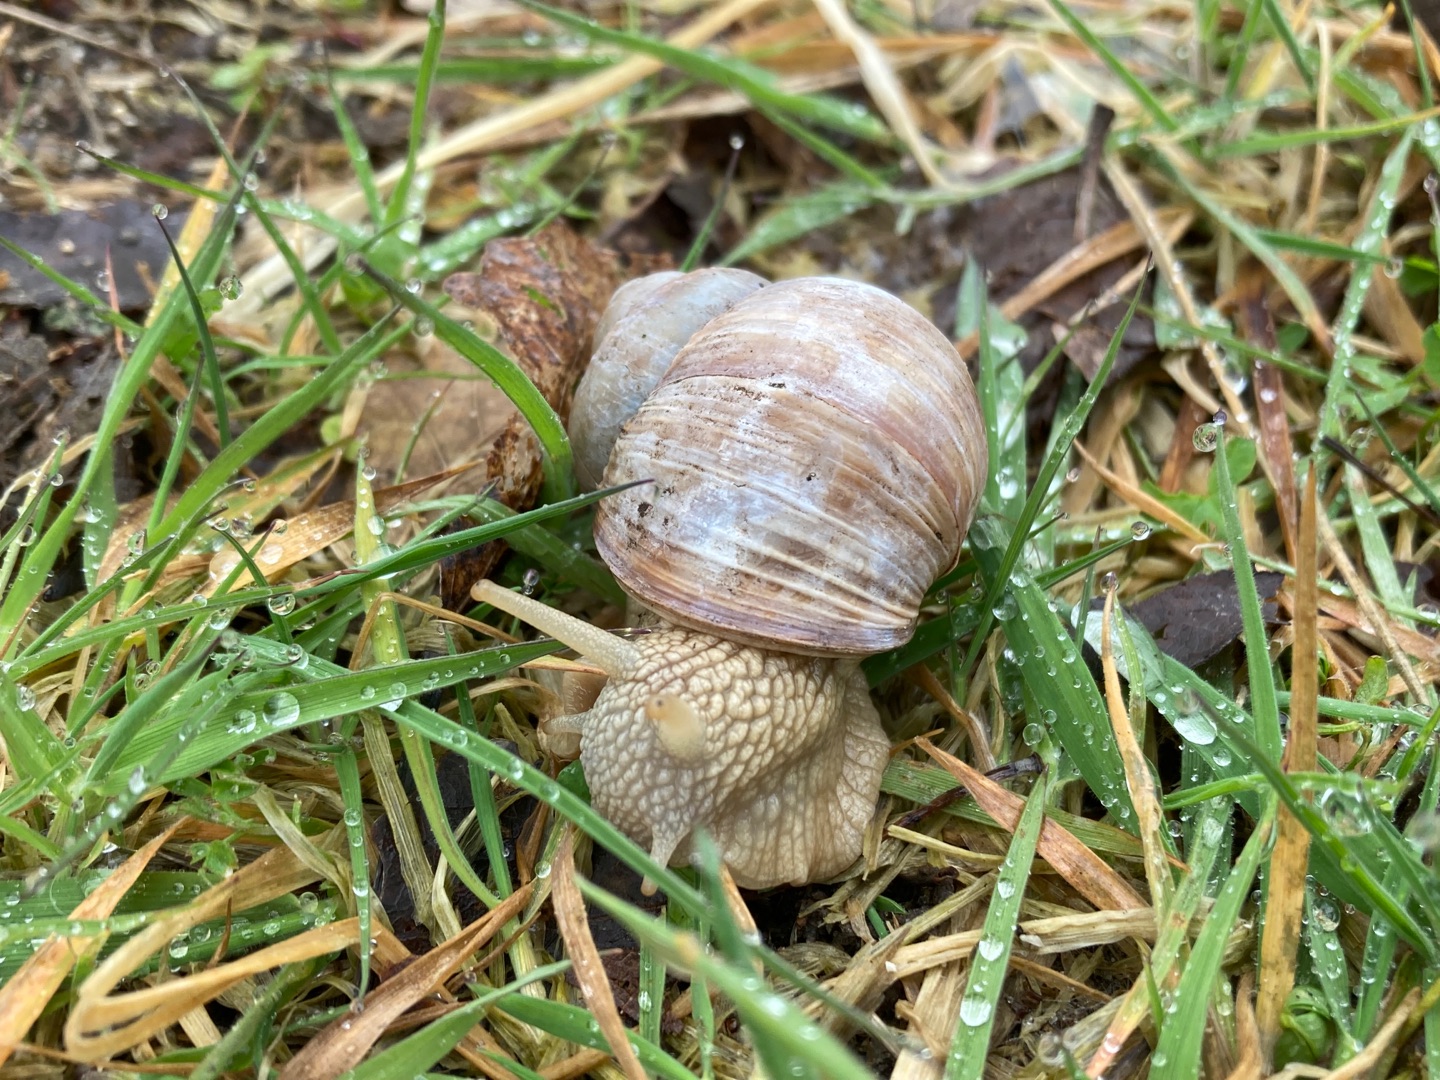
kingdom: Animalia
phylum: Mollusca
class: Gastropoda
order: Stylommatophora
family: Helicidae
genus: Helix
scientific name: Helix pomatia
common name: Vinbjergsnegl
